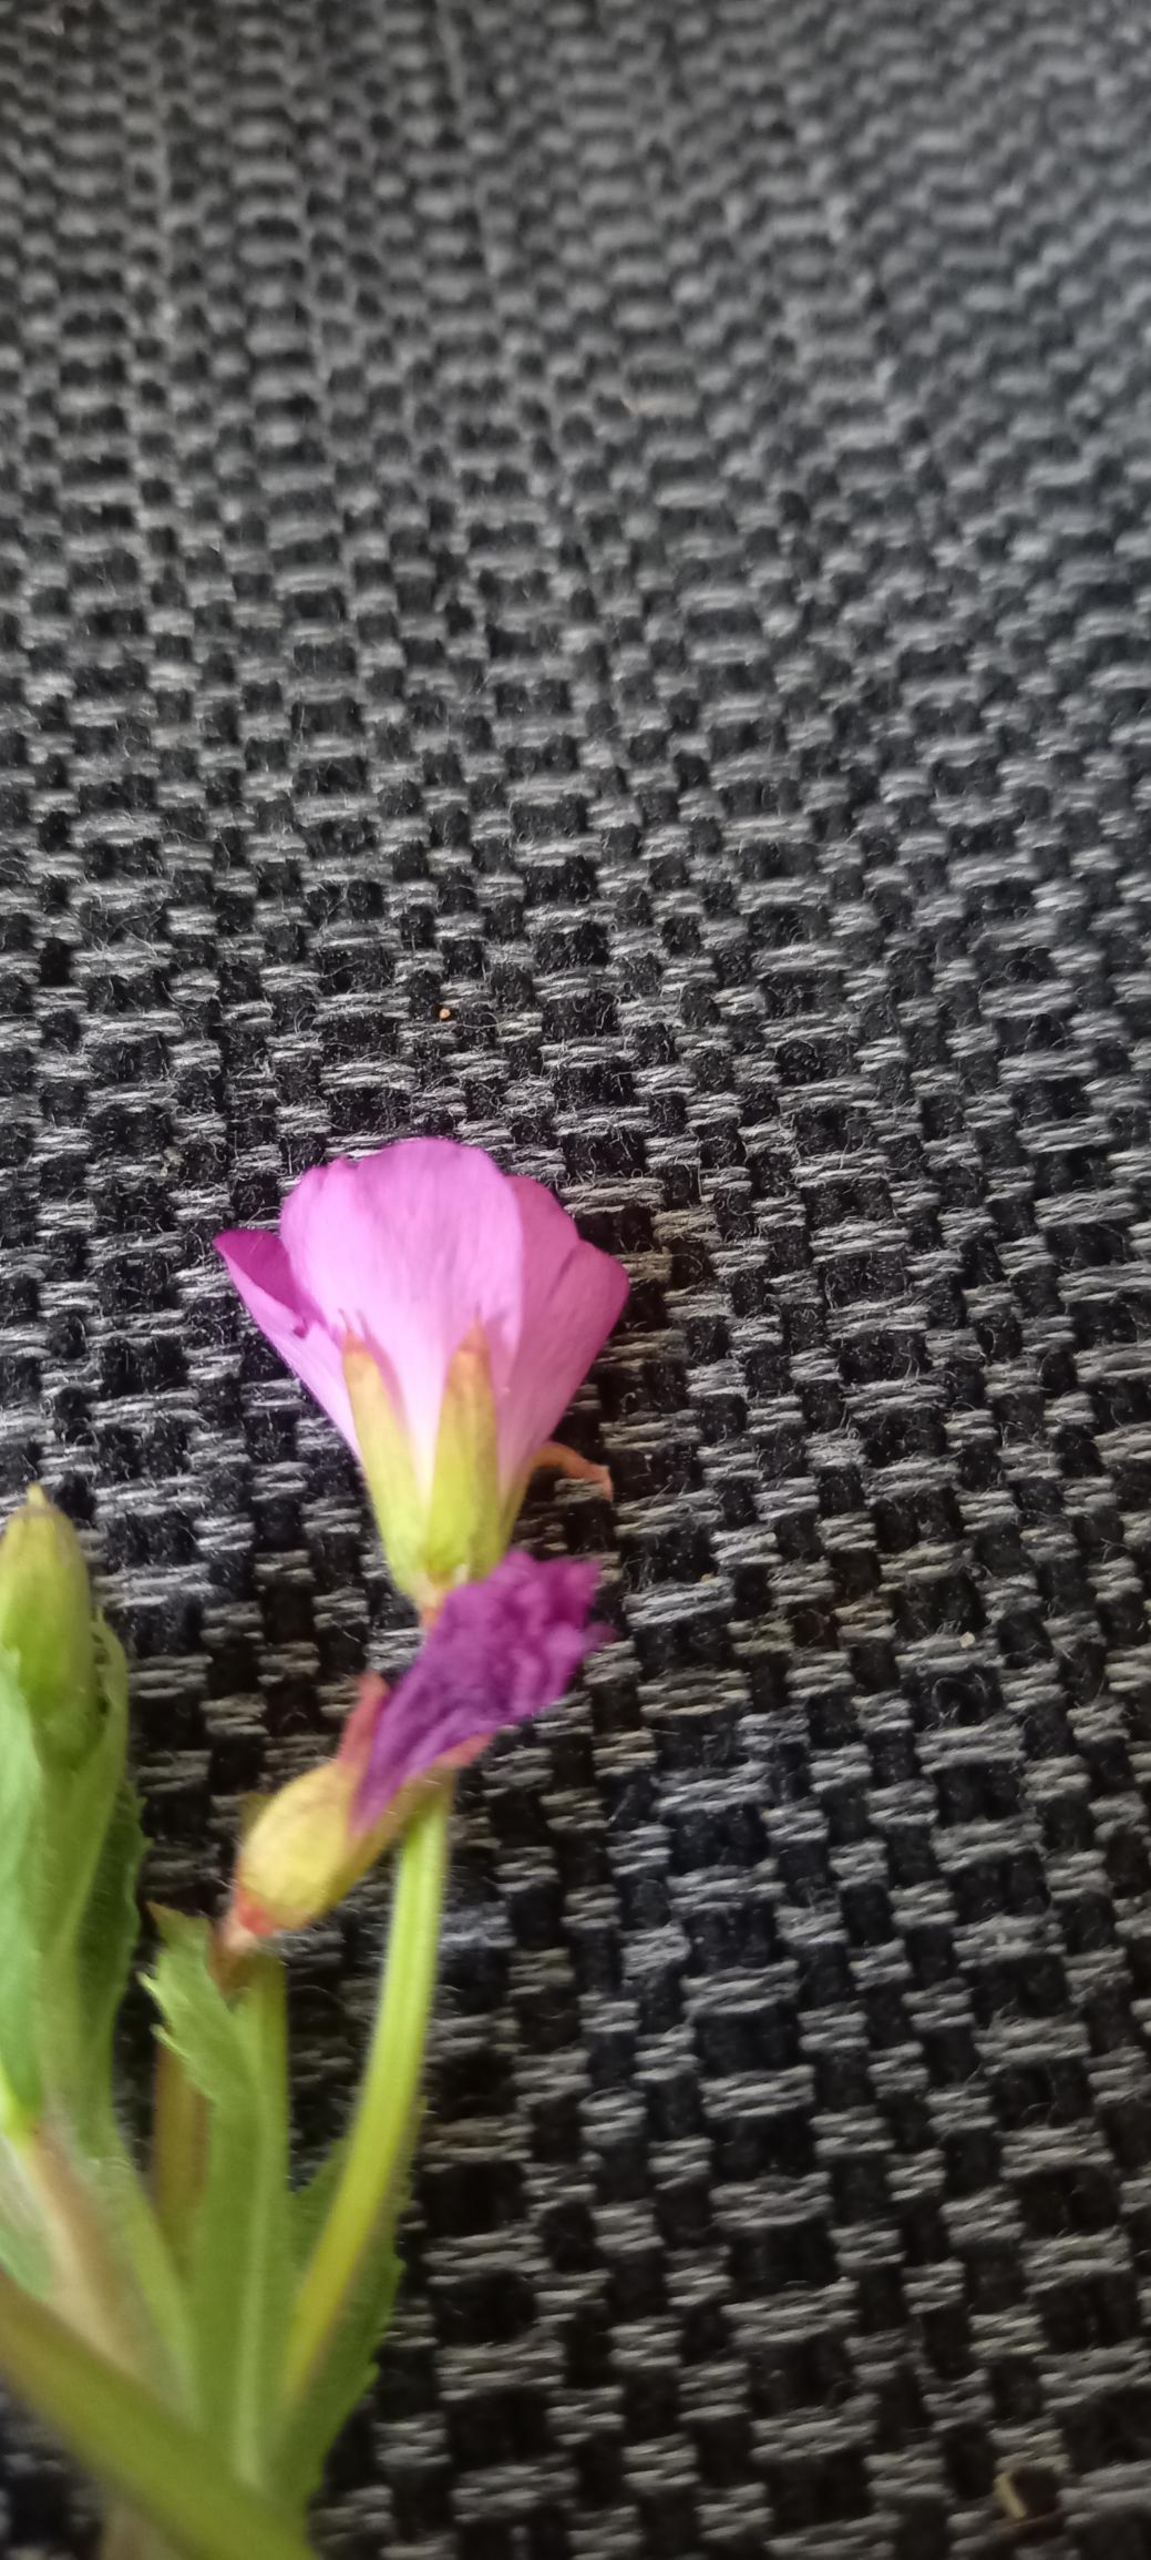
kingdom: Plantae
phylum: Tracheophyta
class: Magnoliopsida
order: Myrtales
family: Onagraceae
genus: Epilobium
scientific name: Epilobium hirsutum
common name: Lådden dueurt
